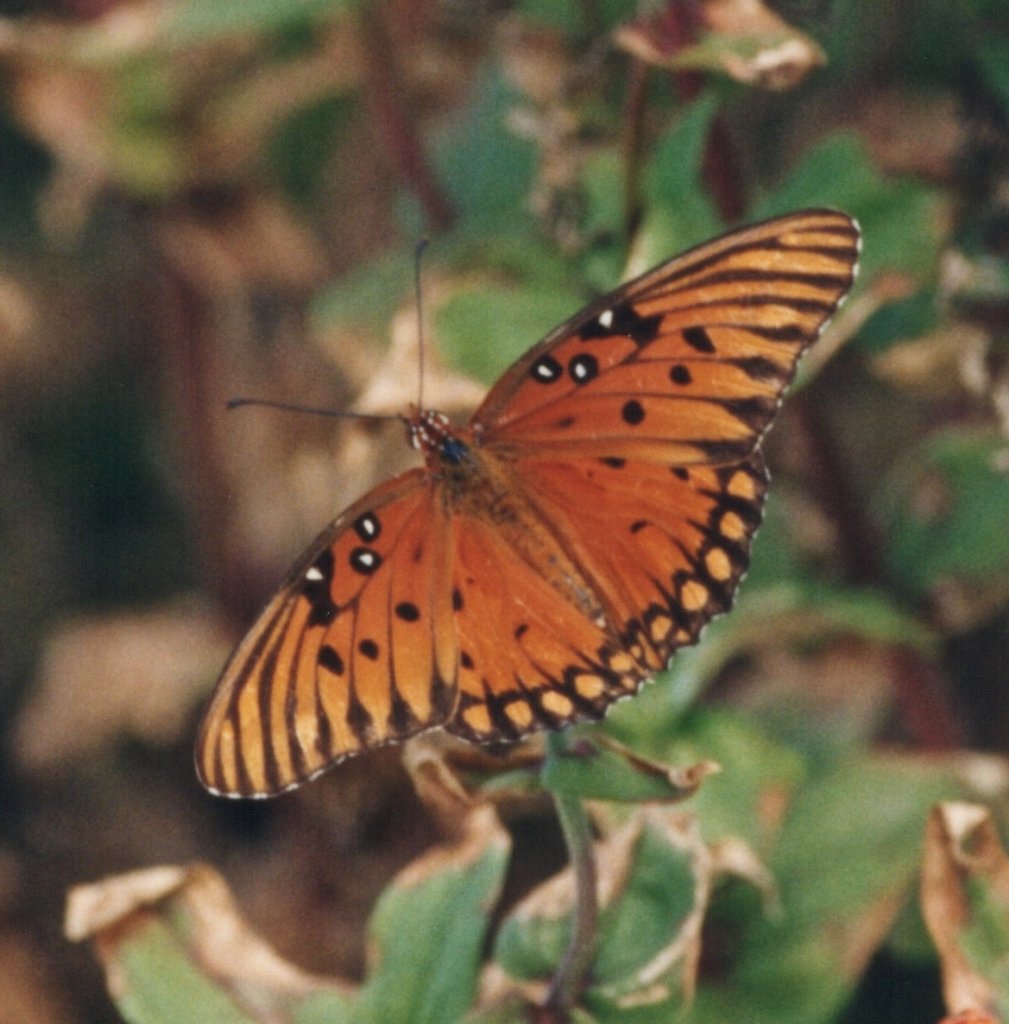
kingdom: Animalia
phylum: Arthropoda
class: Insecta
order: Lepidoptera
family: Nymphalidae
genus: Dione
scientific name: Dione vanillae
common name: Gulf Fritillary
